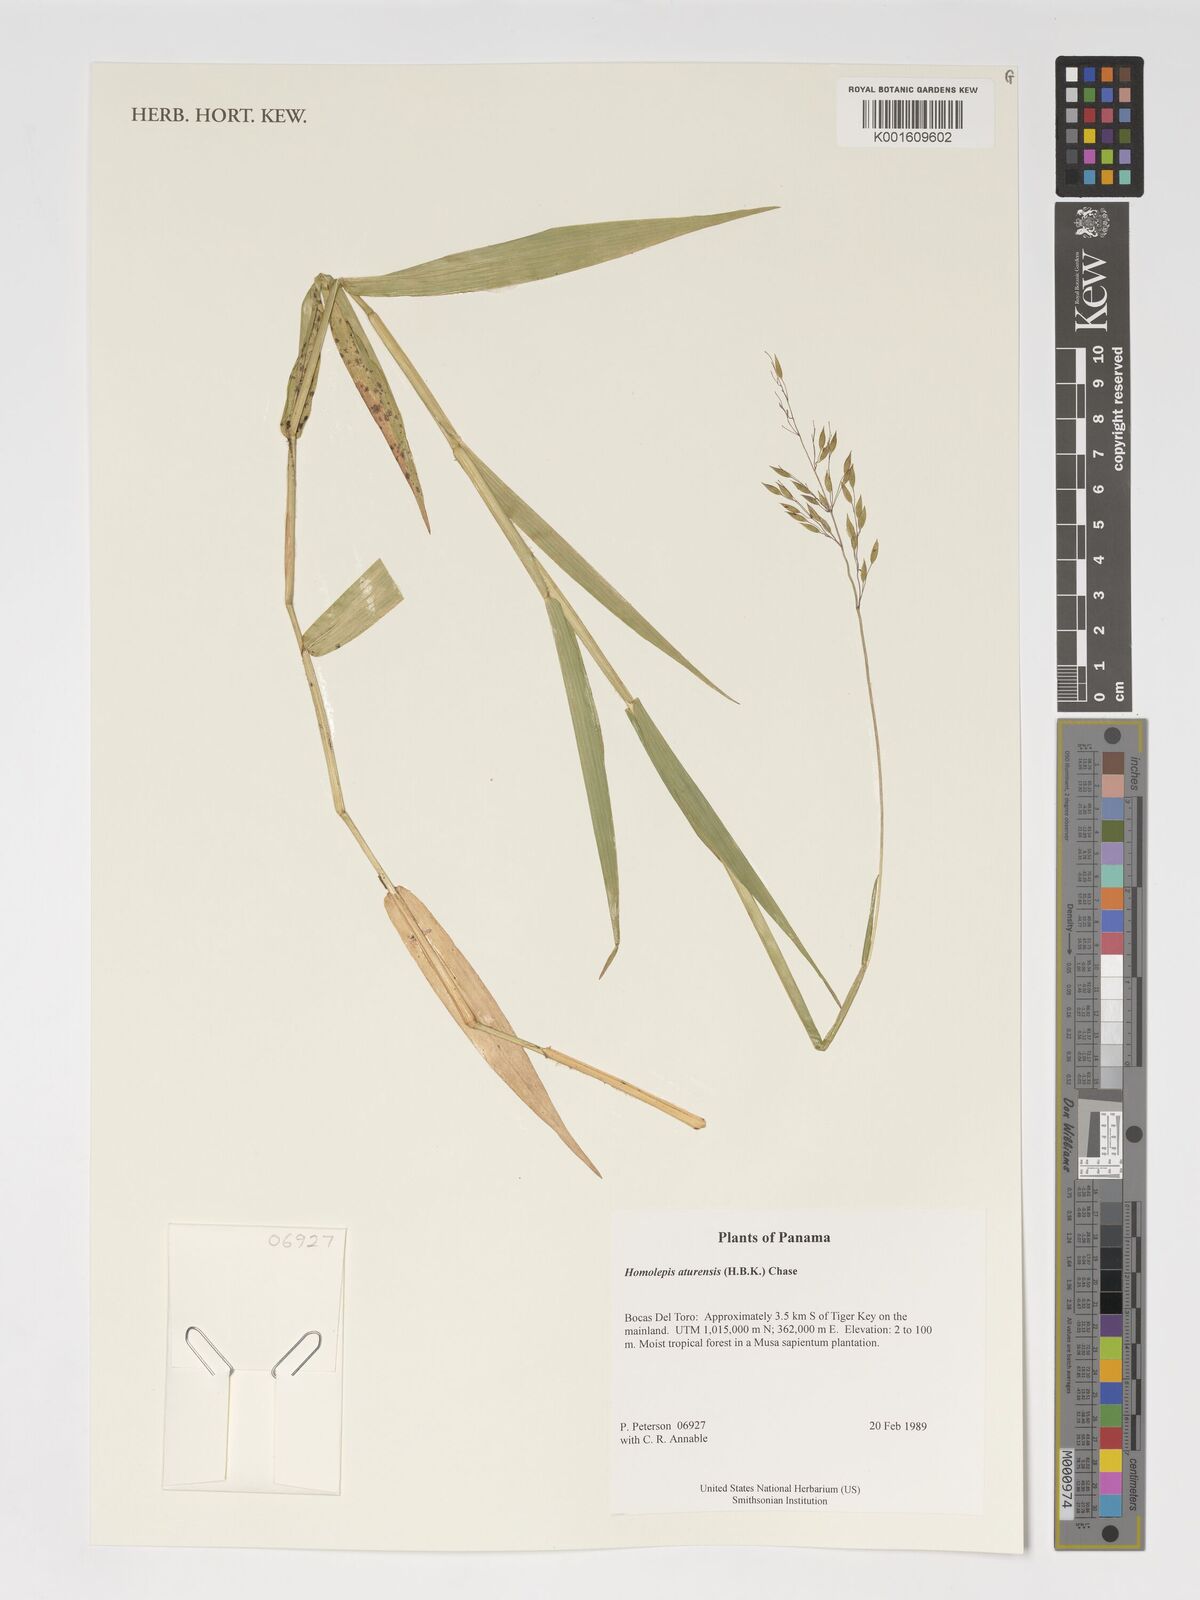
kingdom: Plantae
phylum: Tracheophyta
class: Liliopsida
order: Poales
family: Poaceae
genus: Homolepis
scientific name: Homolepis aturensis
